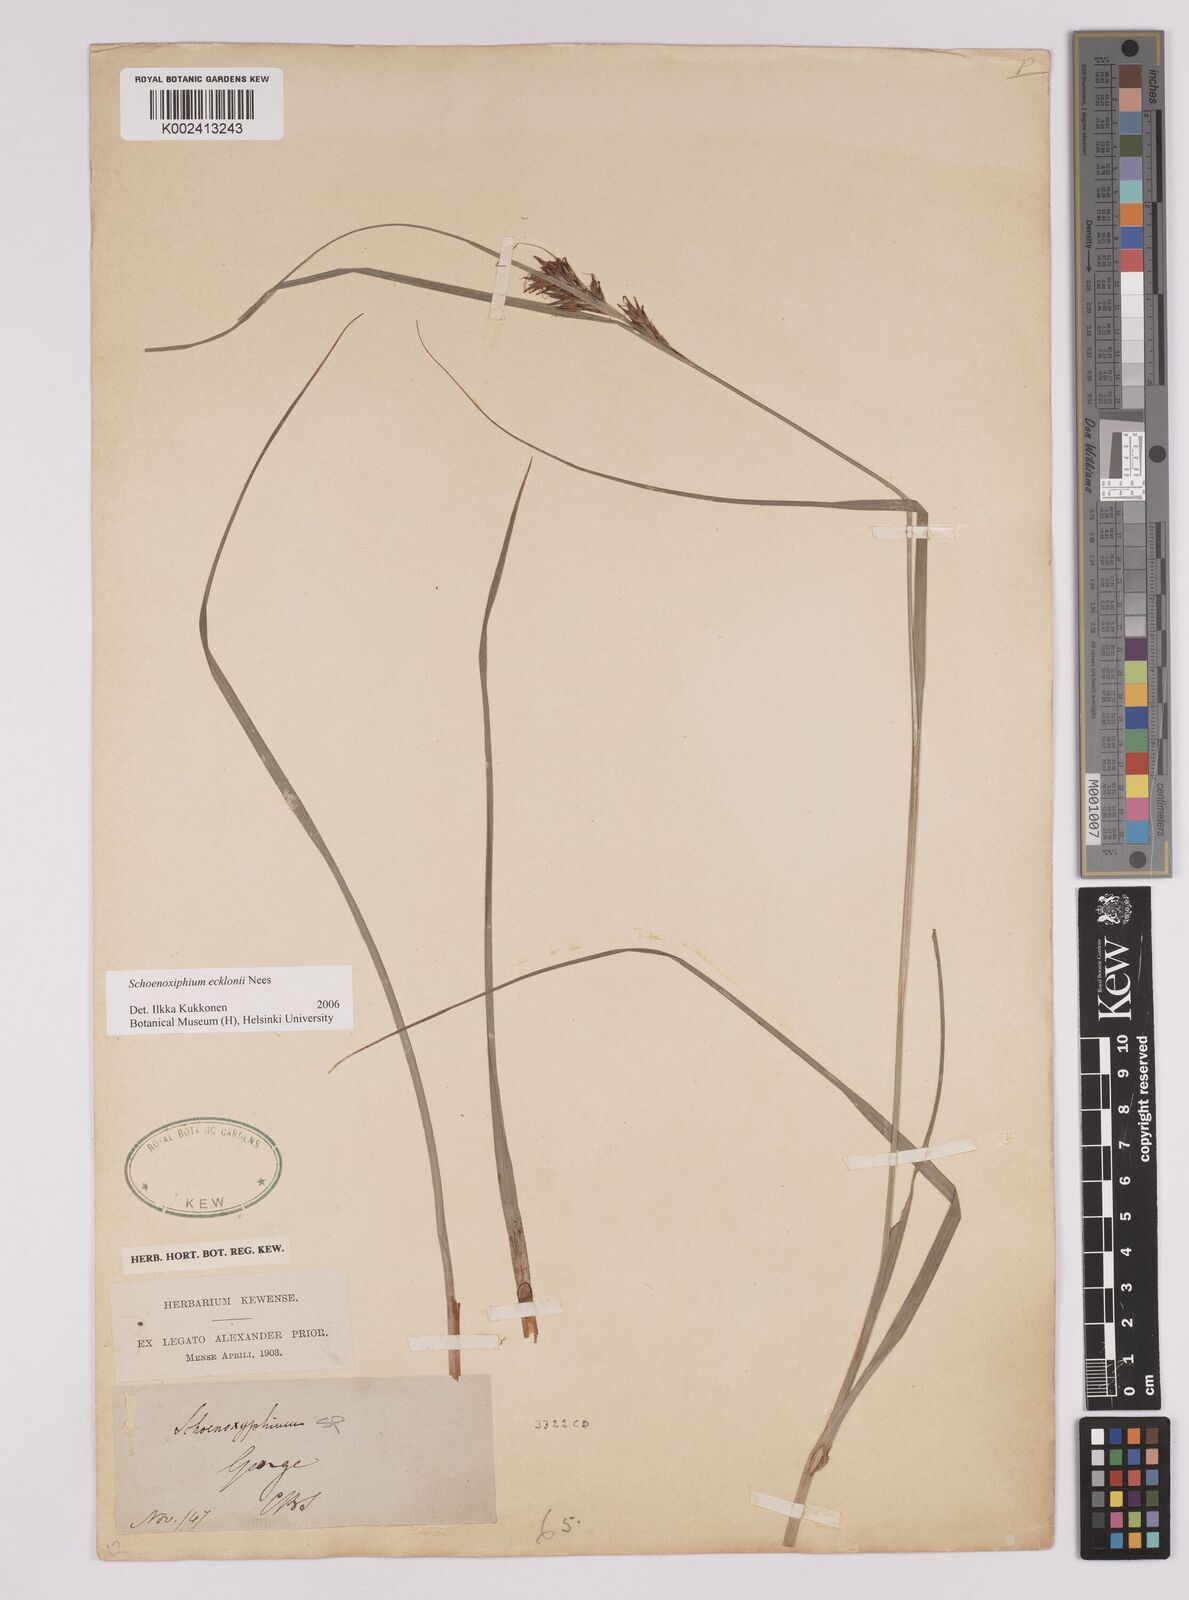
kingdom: Plantae
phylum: Tracheophyta
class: Liliopsida
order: Poales
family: Cyperaceae
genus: Carex
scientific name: Carex capensis
